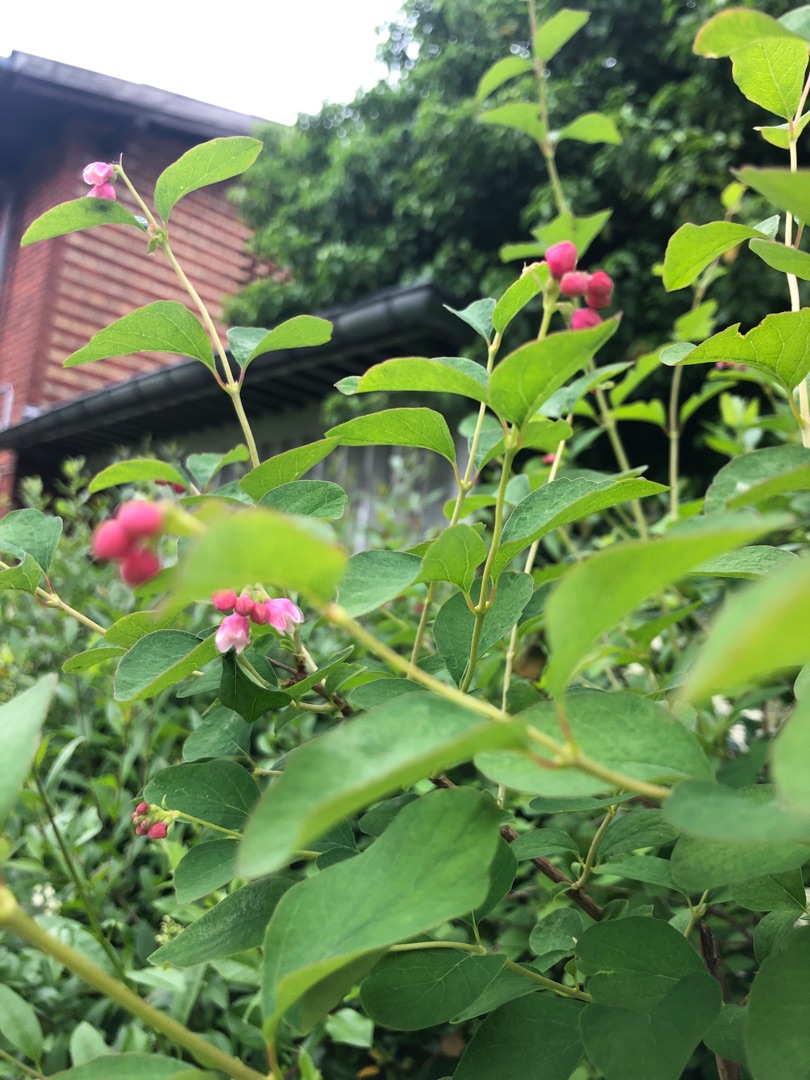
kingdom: Plantae
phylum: Tracheophyta
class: Magnoliopsida
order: Dipsacales
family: Caprifoliaceae
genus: Symphoricarpos
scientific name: Symphoricarpos albus
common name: Almindelig snebær
